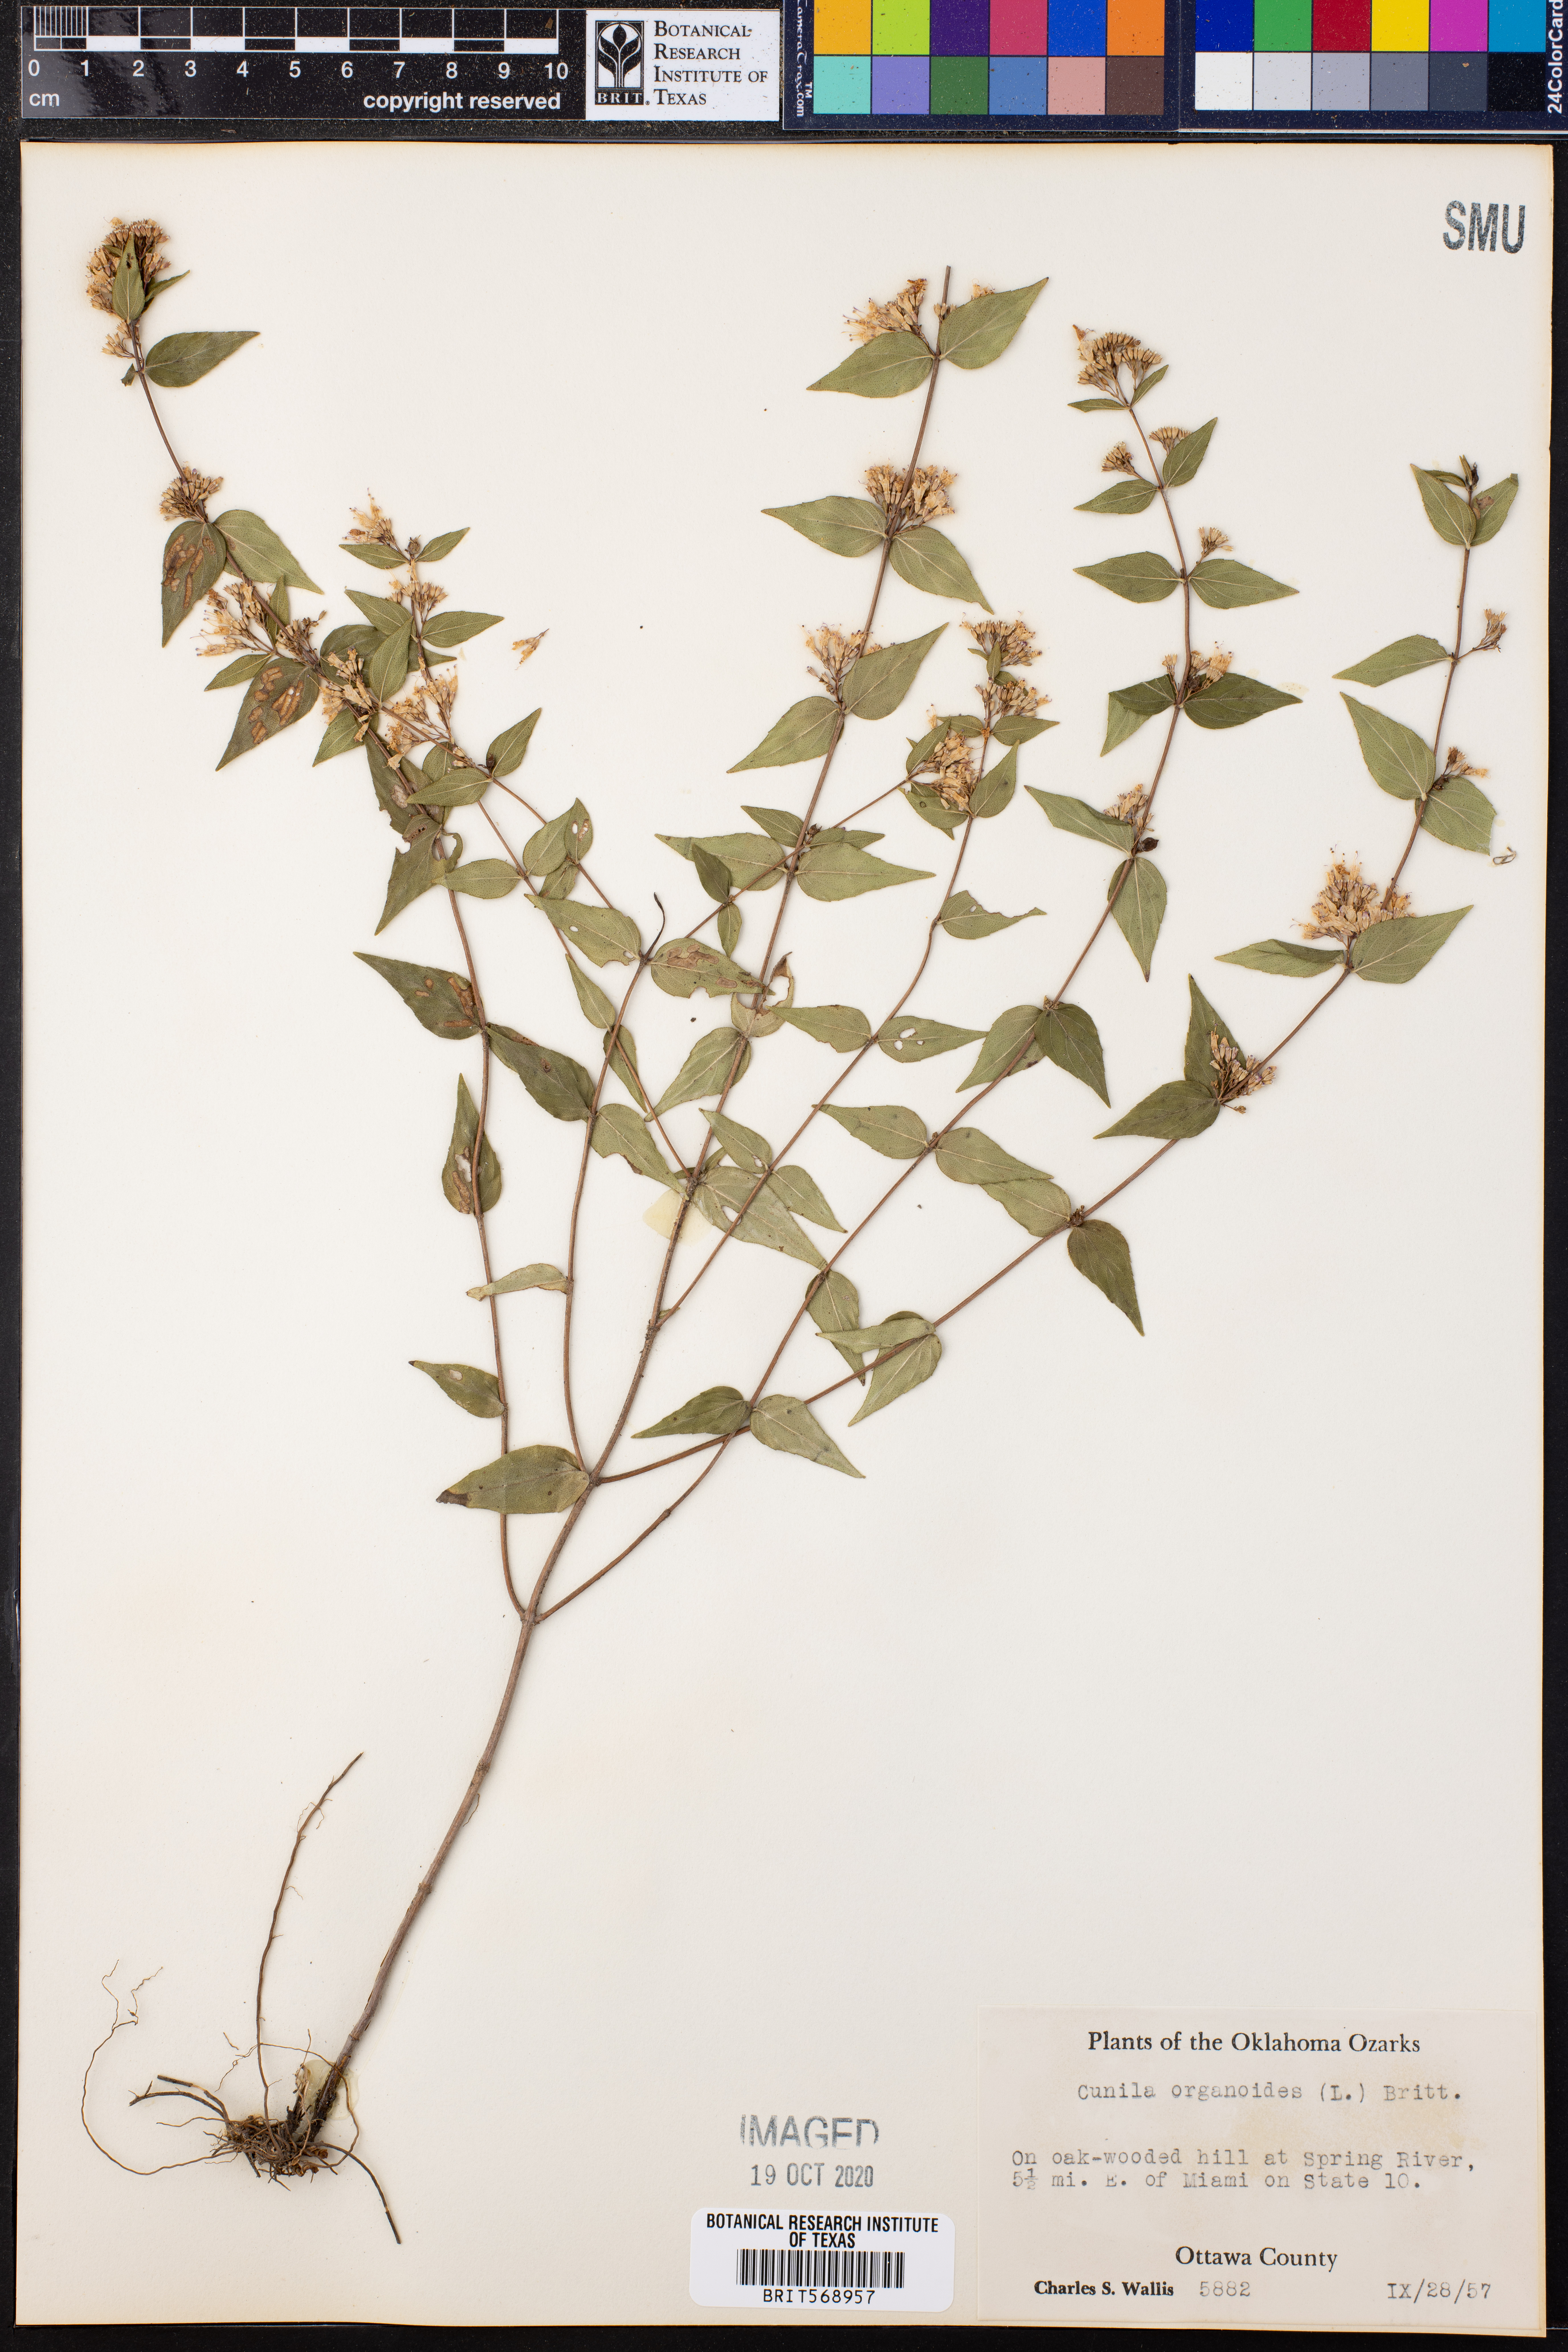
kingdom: Plantae
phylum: Tracheophyta
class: Magnoliopsida
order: Lamiales
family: Lamiaceae
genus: Cunila
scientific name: Cunila origanoides
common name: American dittany
